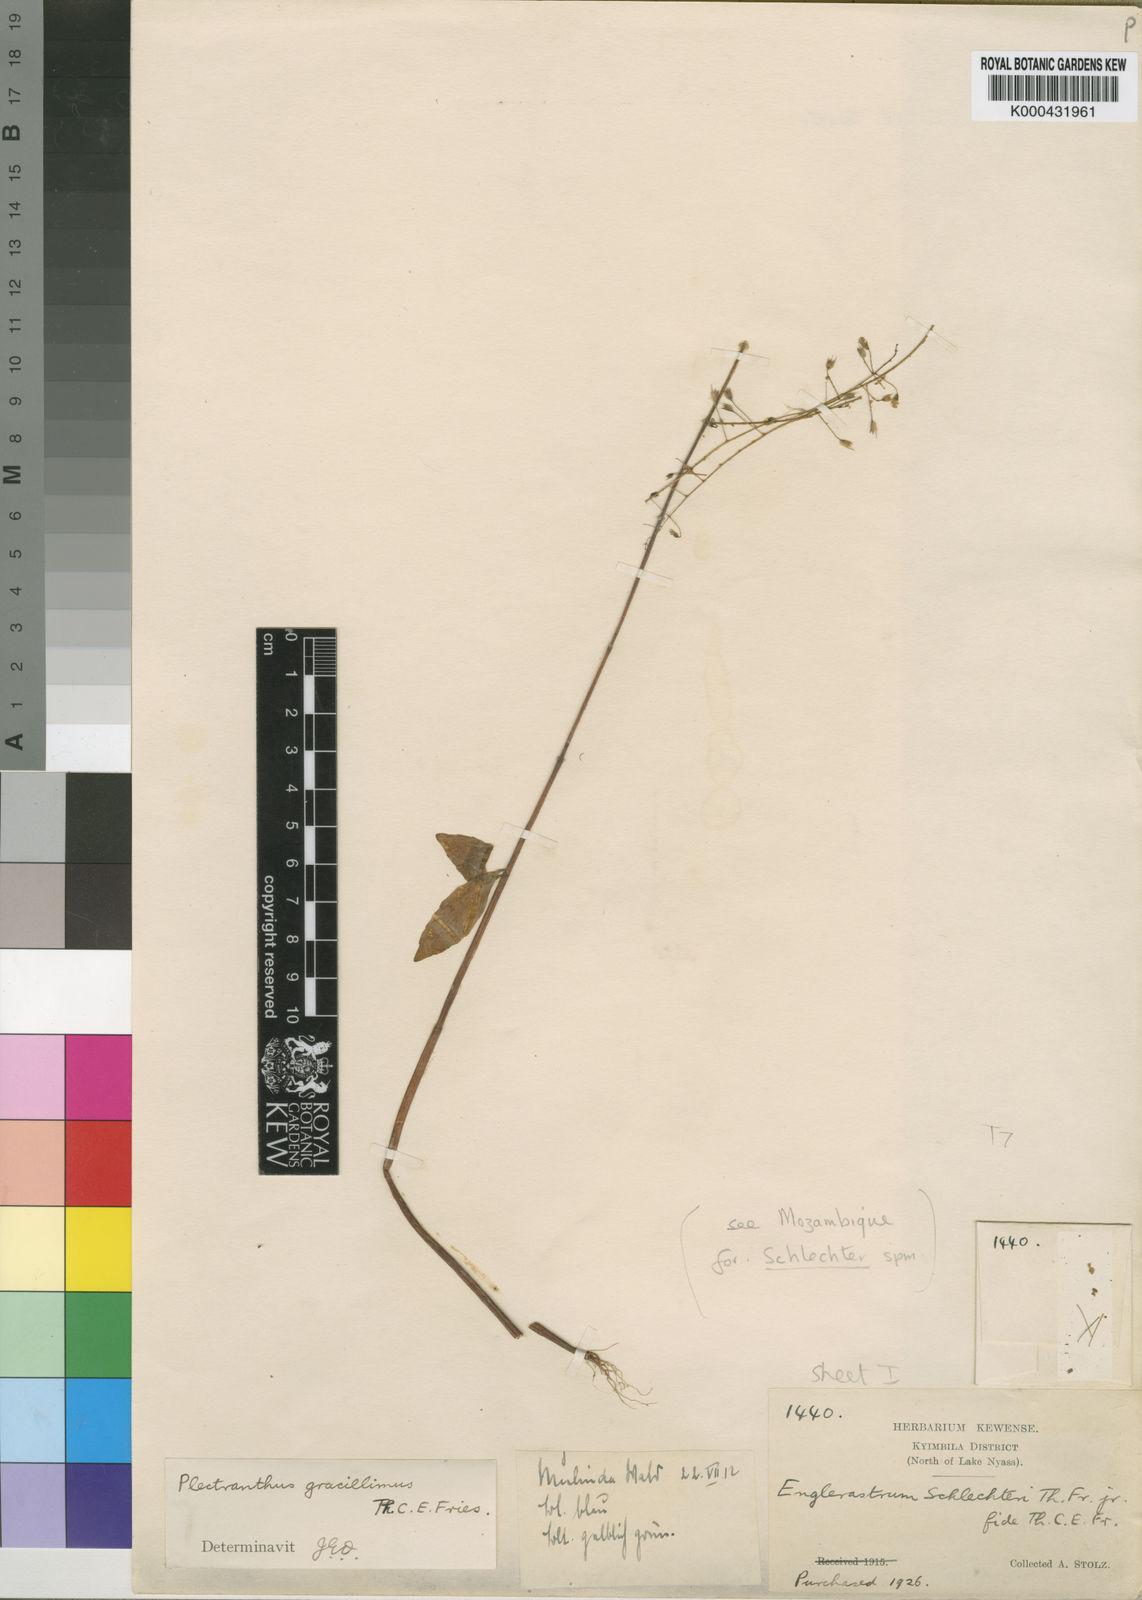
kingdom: Plantae
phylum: Tracheophyta
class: Magnoliopsida
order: Lamiales
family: Lamiaceae
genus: Coleus
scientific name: Coleus gracillimus
